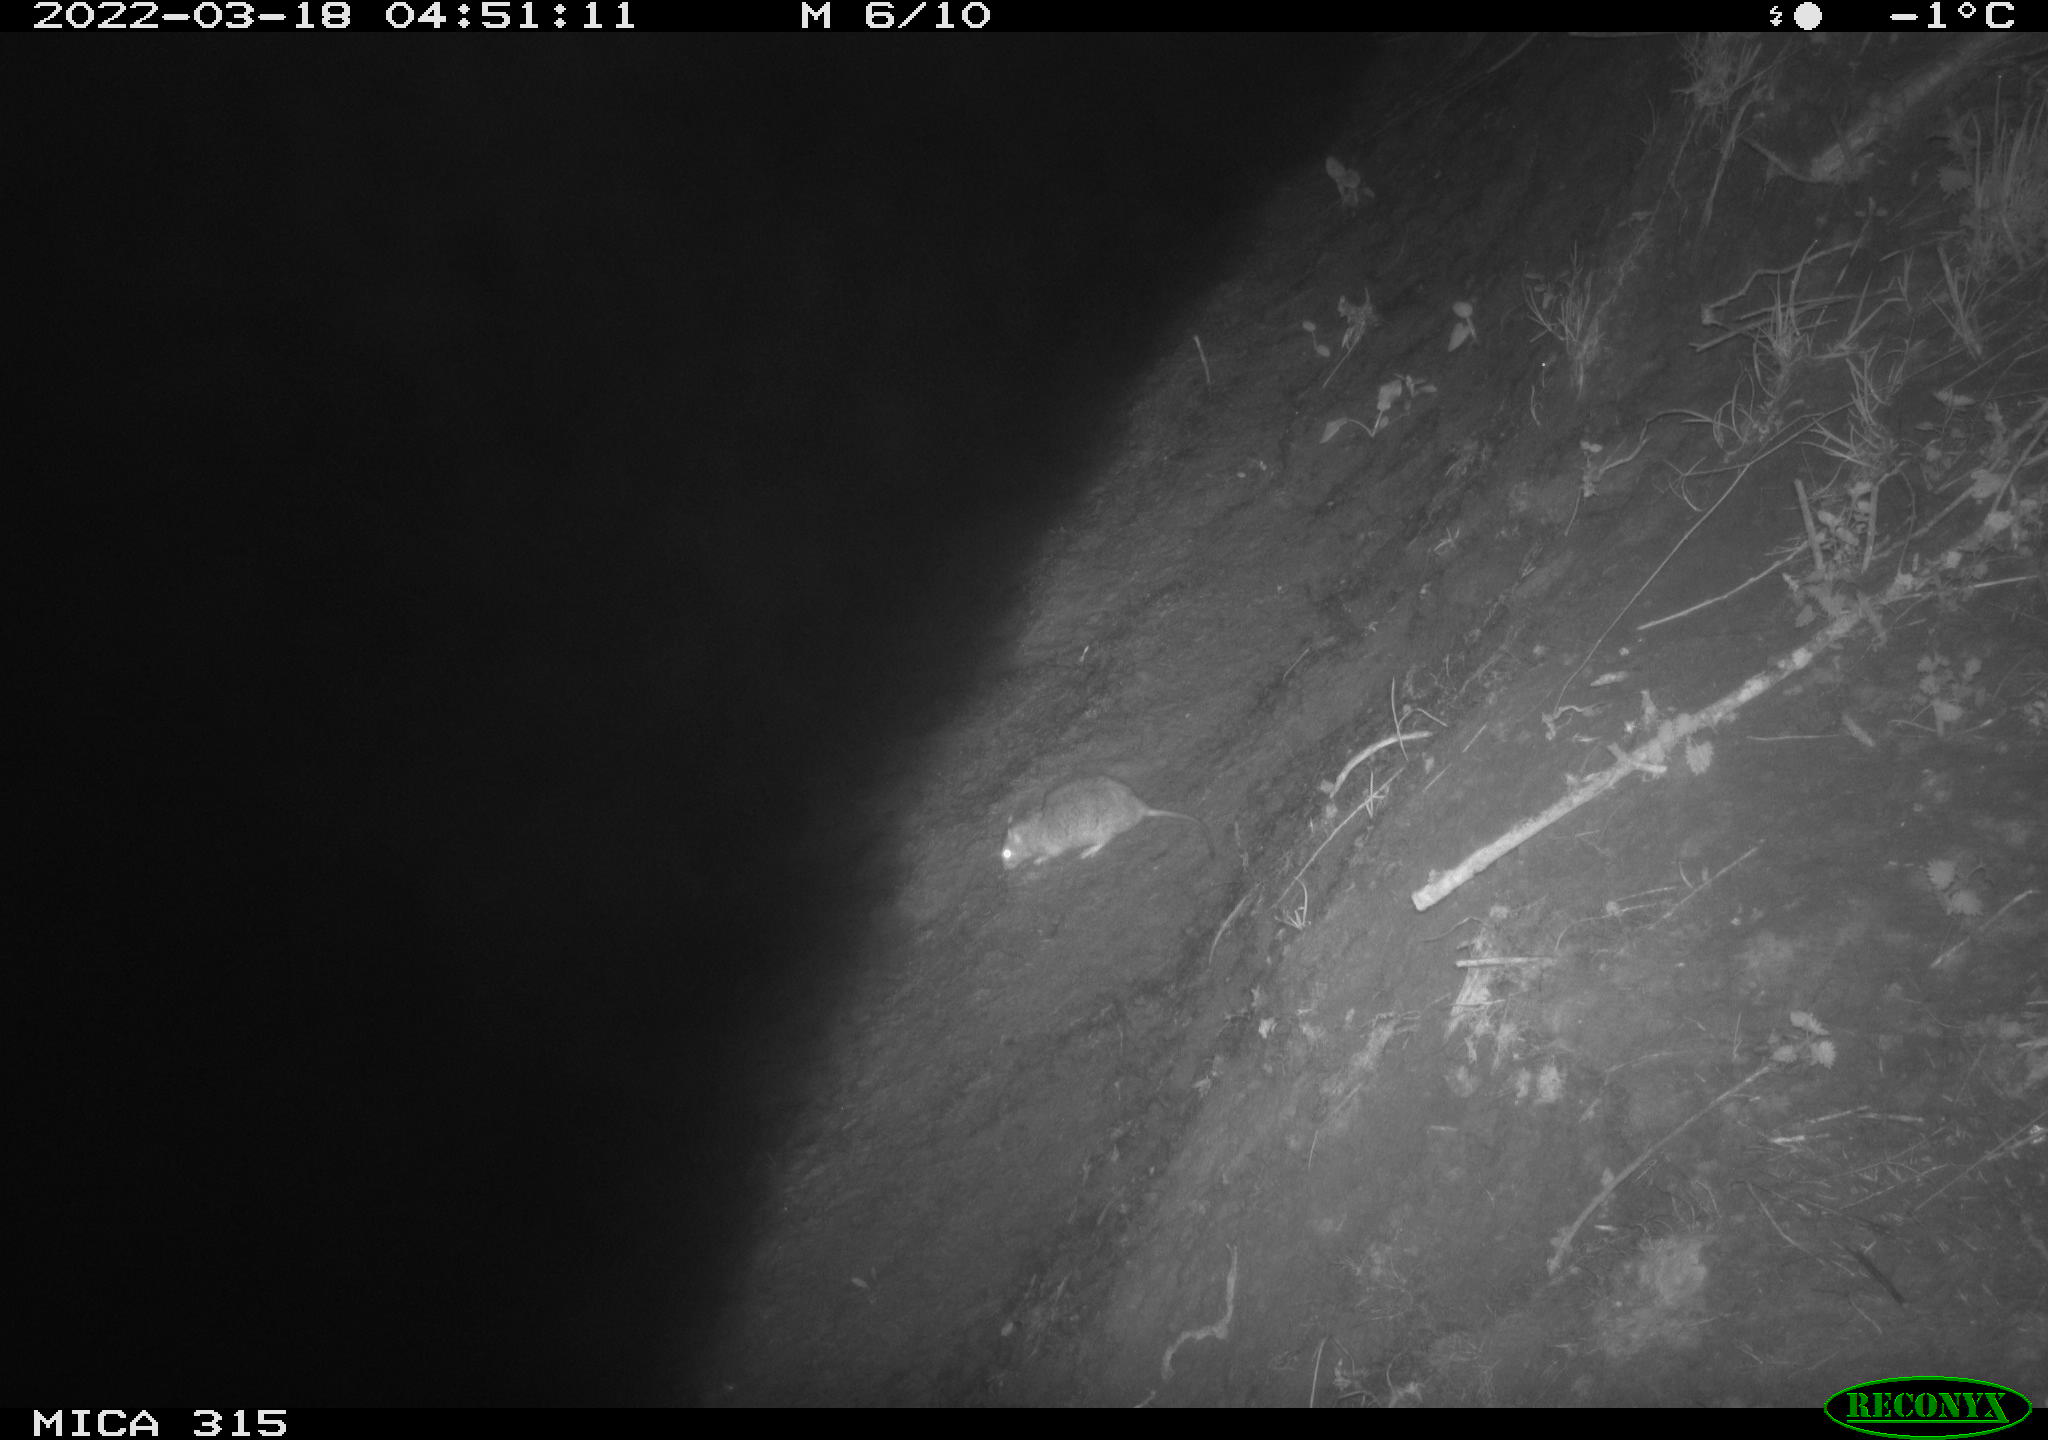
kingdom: Animalia
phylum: Chordata
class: Mammalia
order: Rodentia
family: Muridae
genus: Rattus
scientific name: Rattus norvegicus
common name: Brown rat
